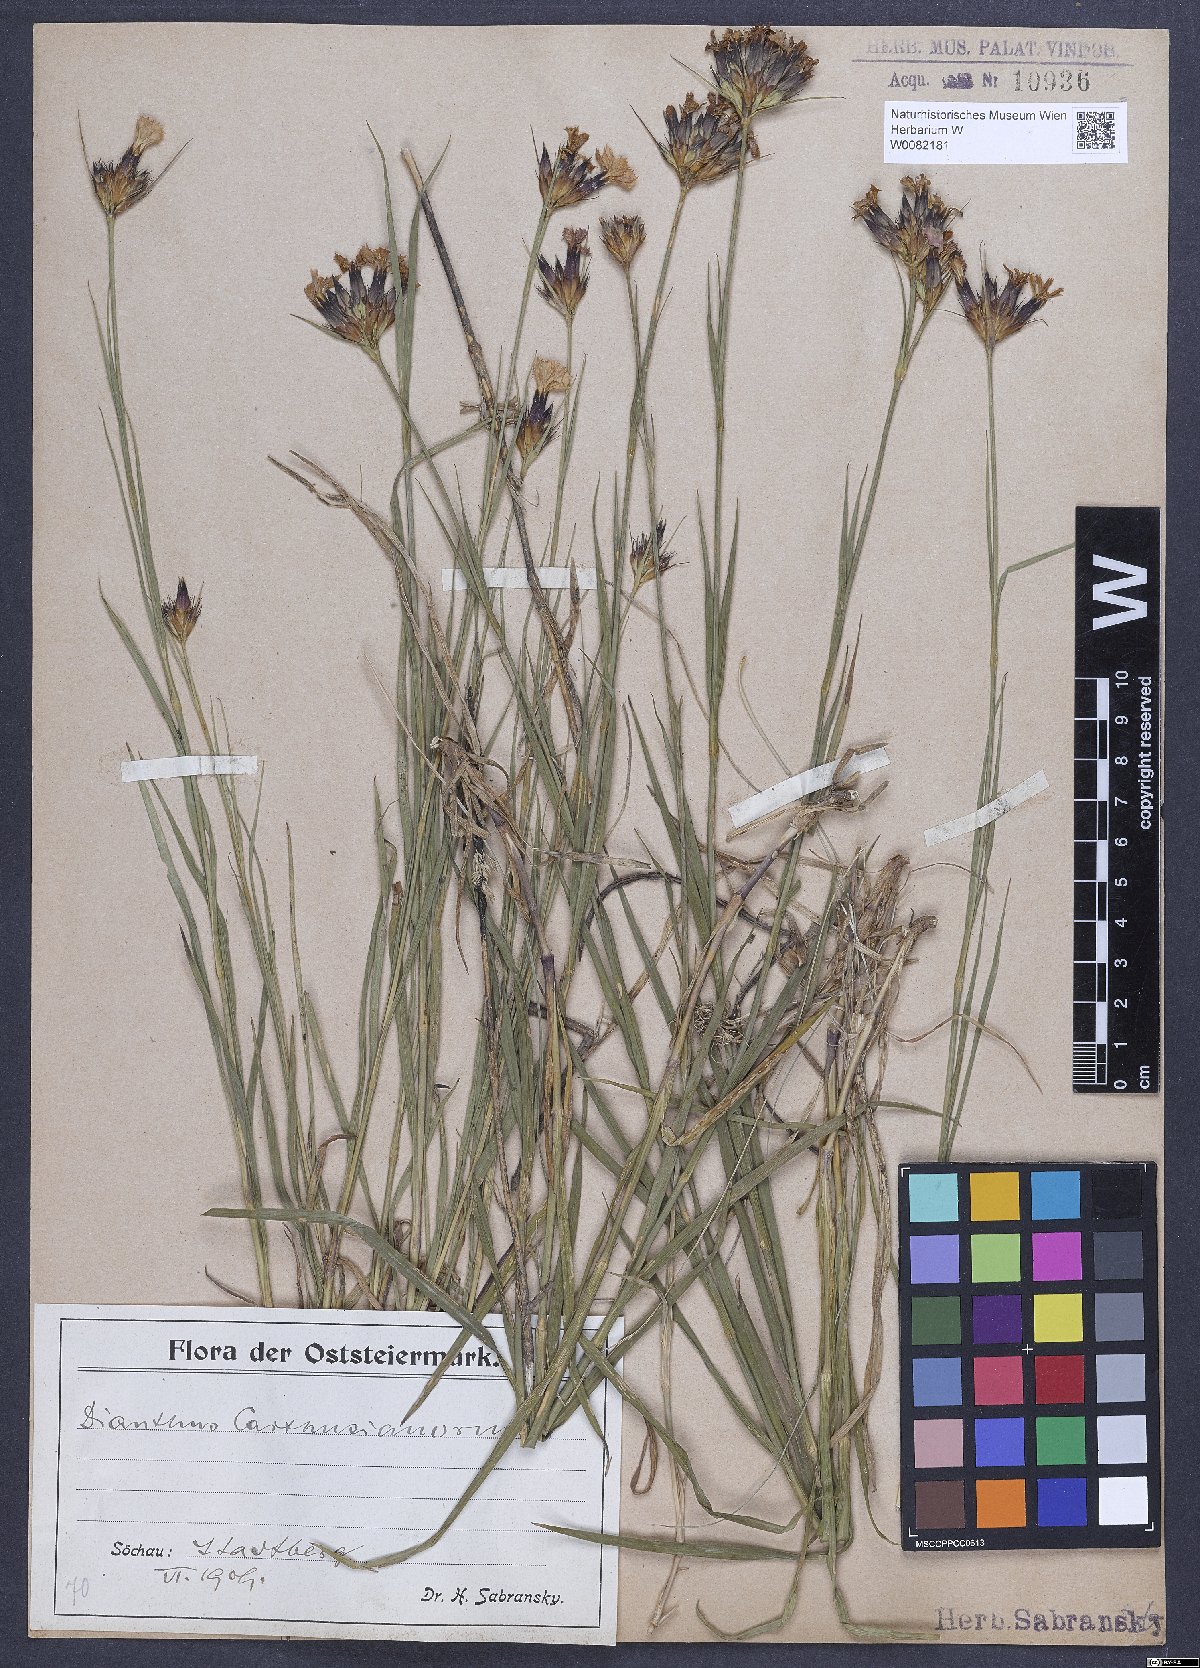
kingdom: Plantae
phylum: Tracheophyta
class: Magnoliopsida
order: Caryophyllales
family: Caryophyllaceae
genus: Dianthus
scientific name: Dianthus carthusianorum
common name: Carthusian pink
